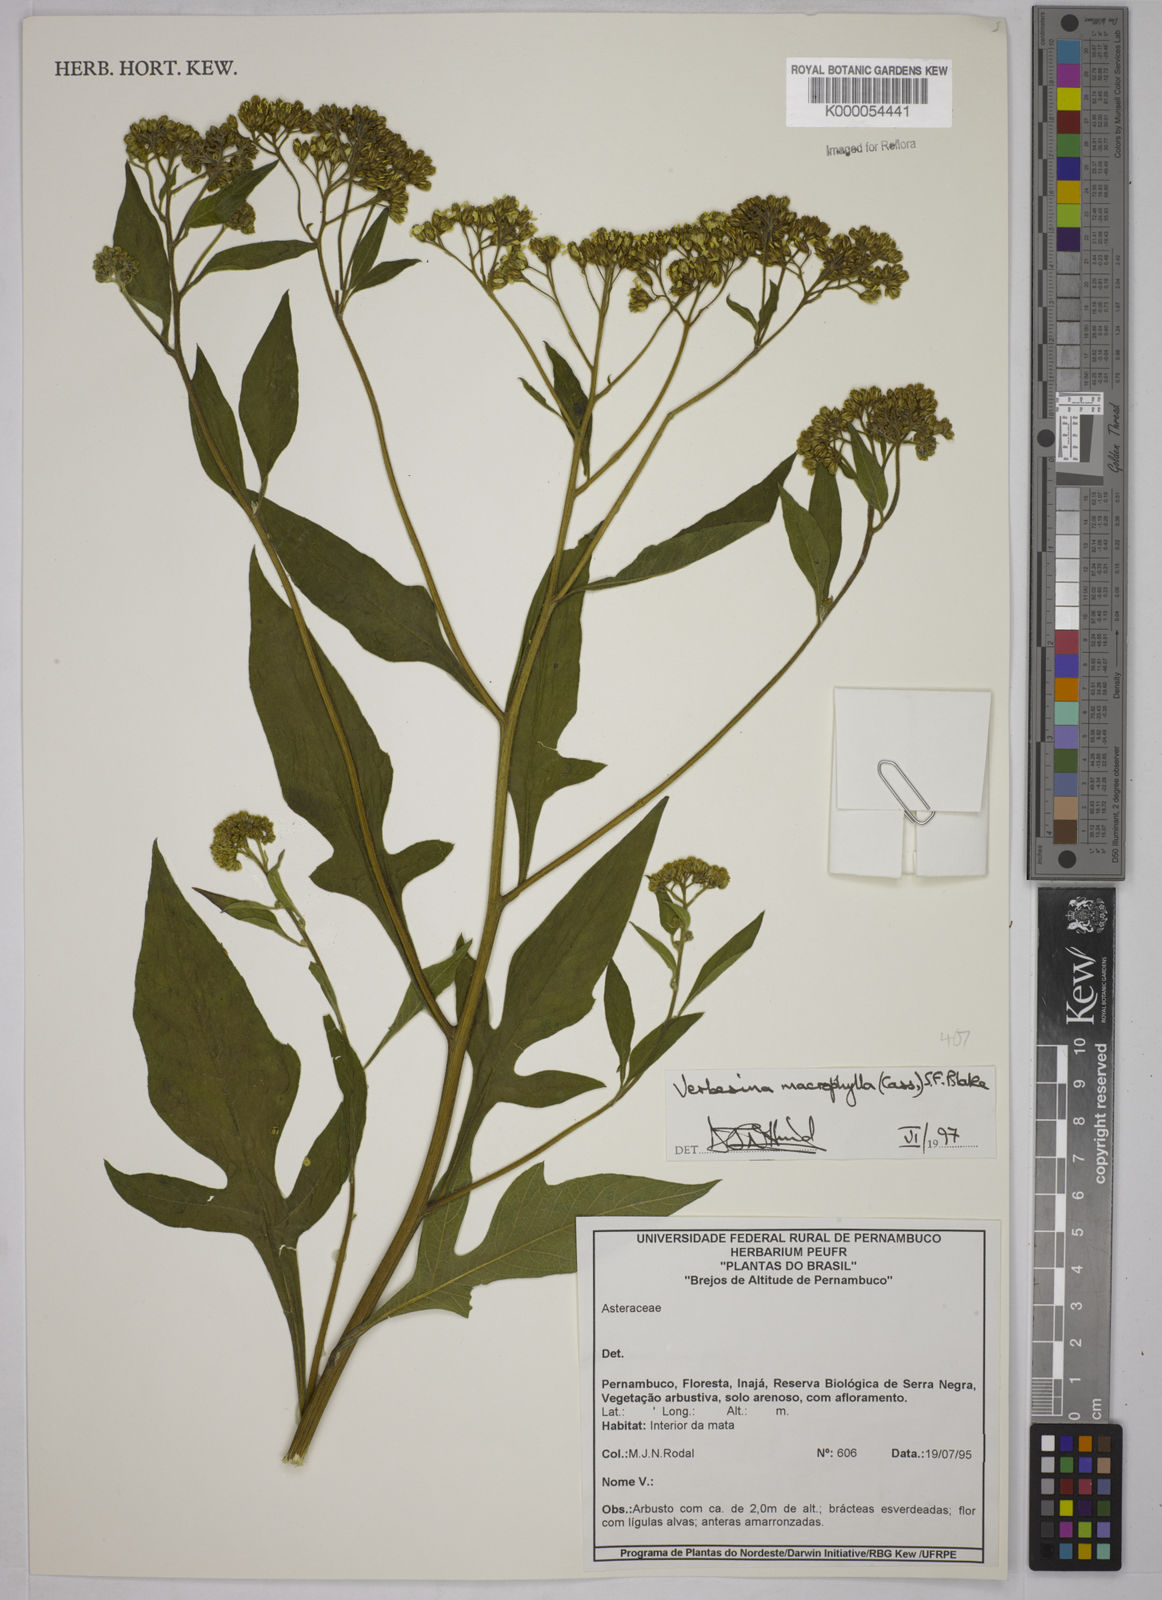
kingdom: Plantae
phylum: Tracheophyta
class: Magnoliopsida
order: Asterales
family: Asteraceae
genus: Verbesina
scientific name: Verbesina macrophylla
